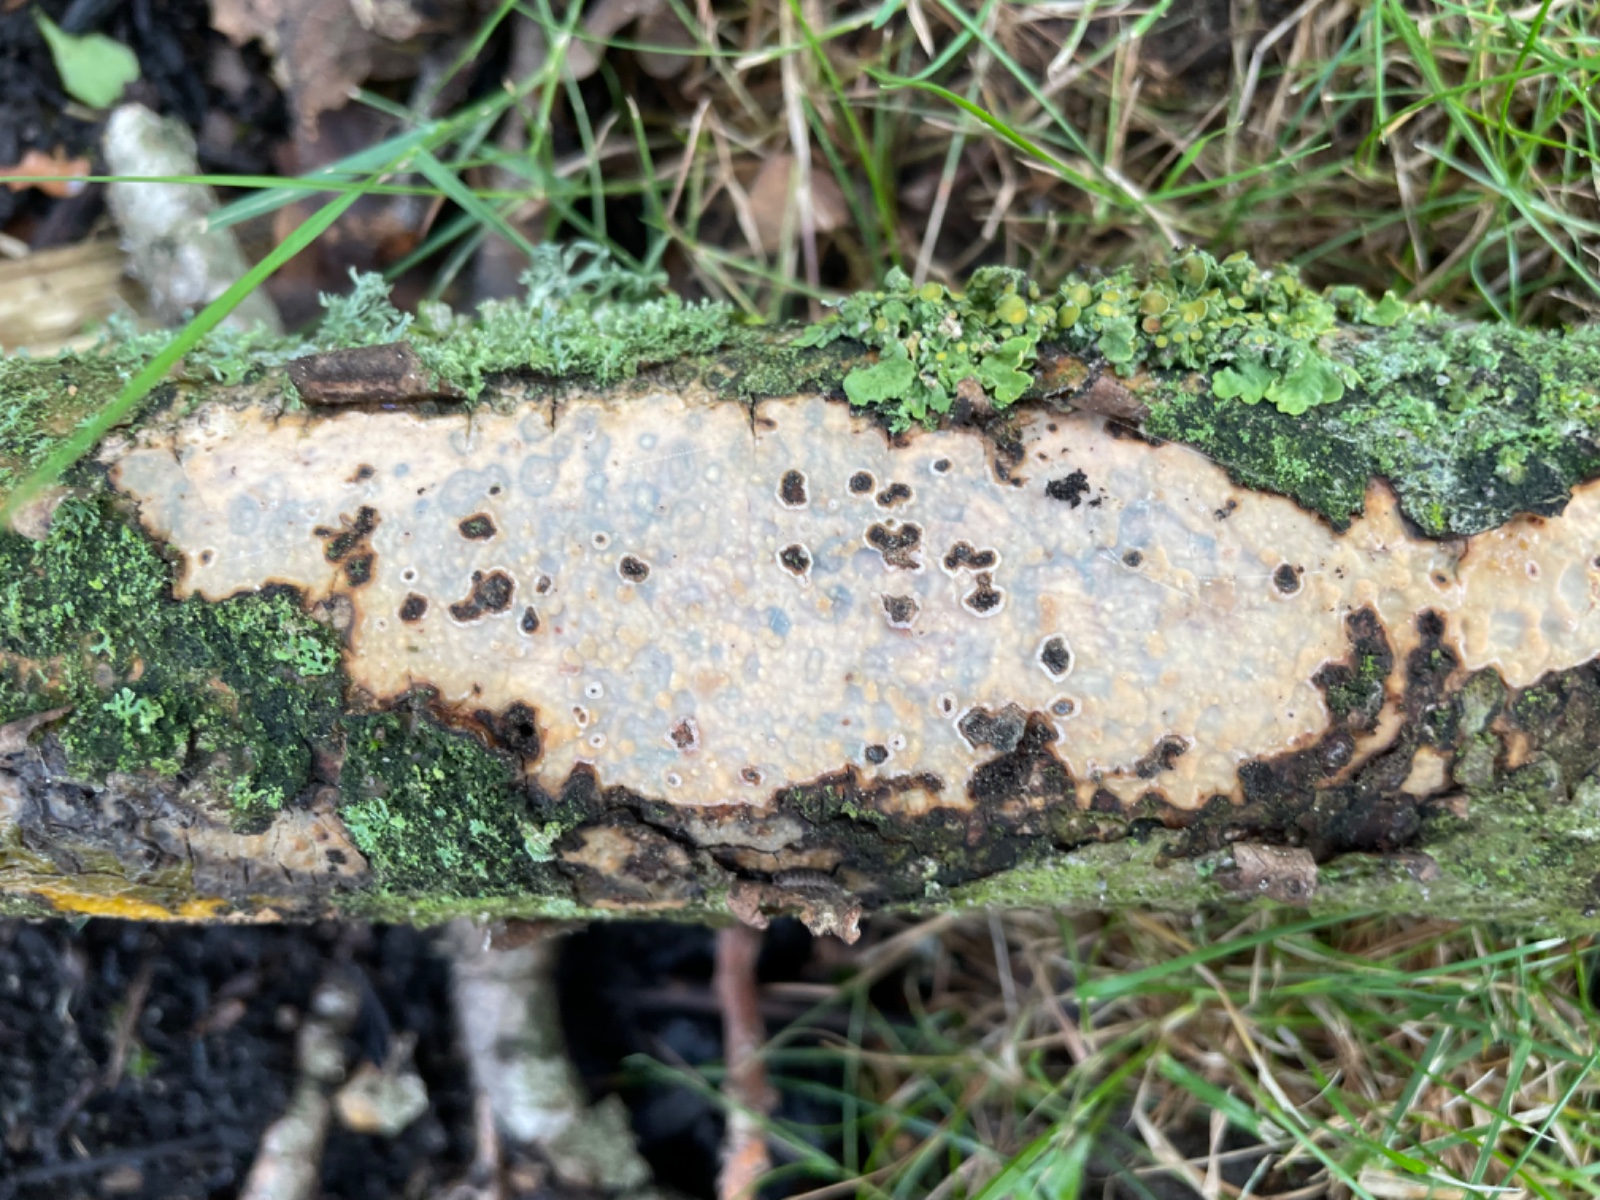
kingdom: Fungi
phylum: Basidiomycota
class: Agaricomycetes
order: Corticiales
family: Vuilleminiaceae
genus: Vuilleminia
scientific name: Vuilleminia comedens
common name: almindelig barksprænger
